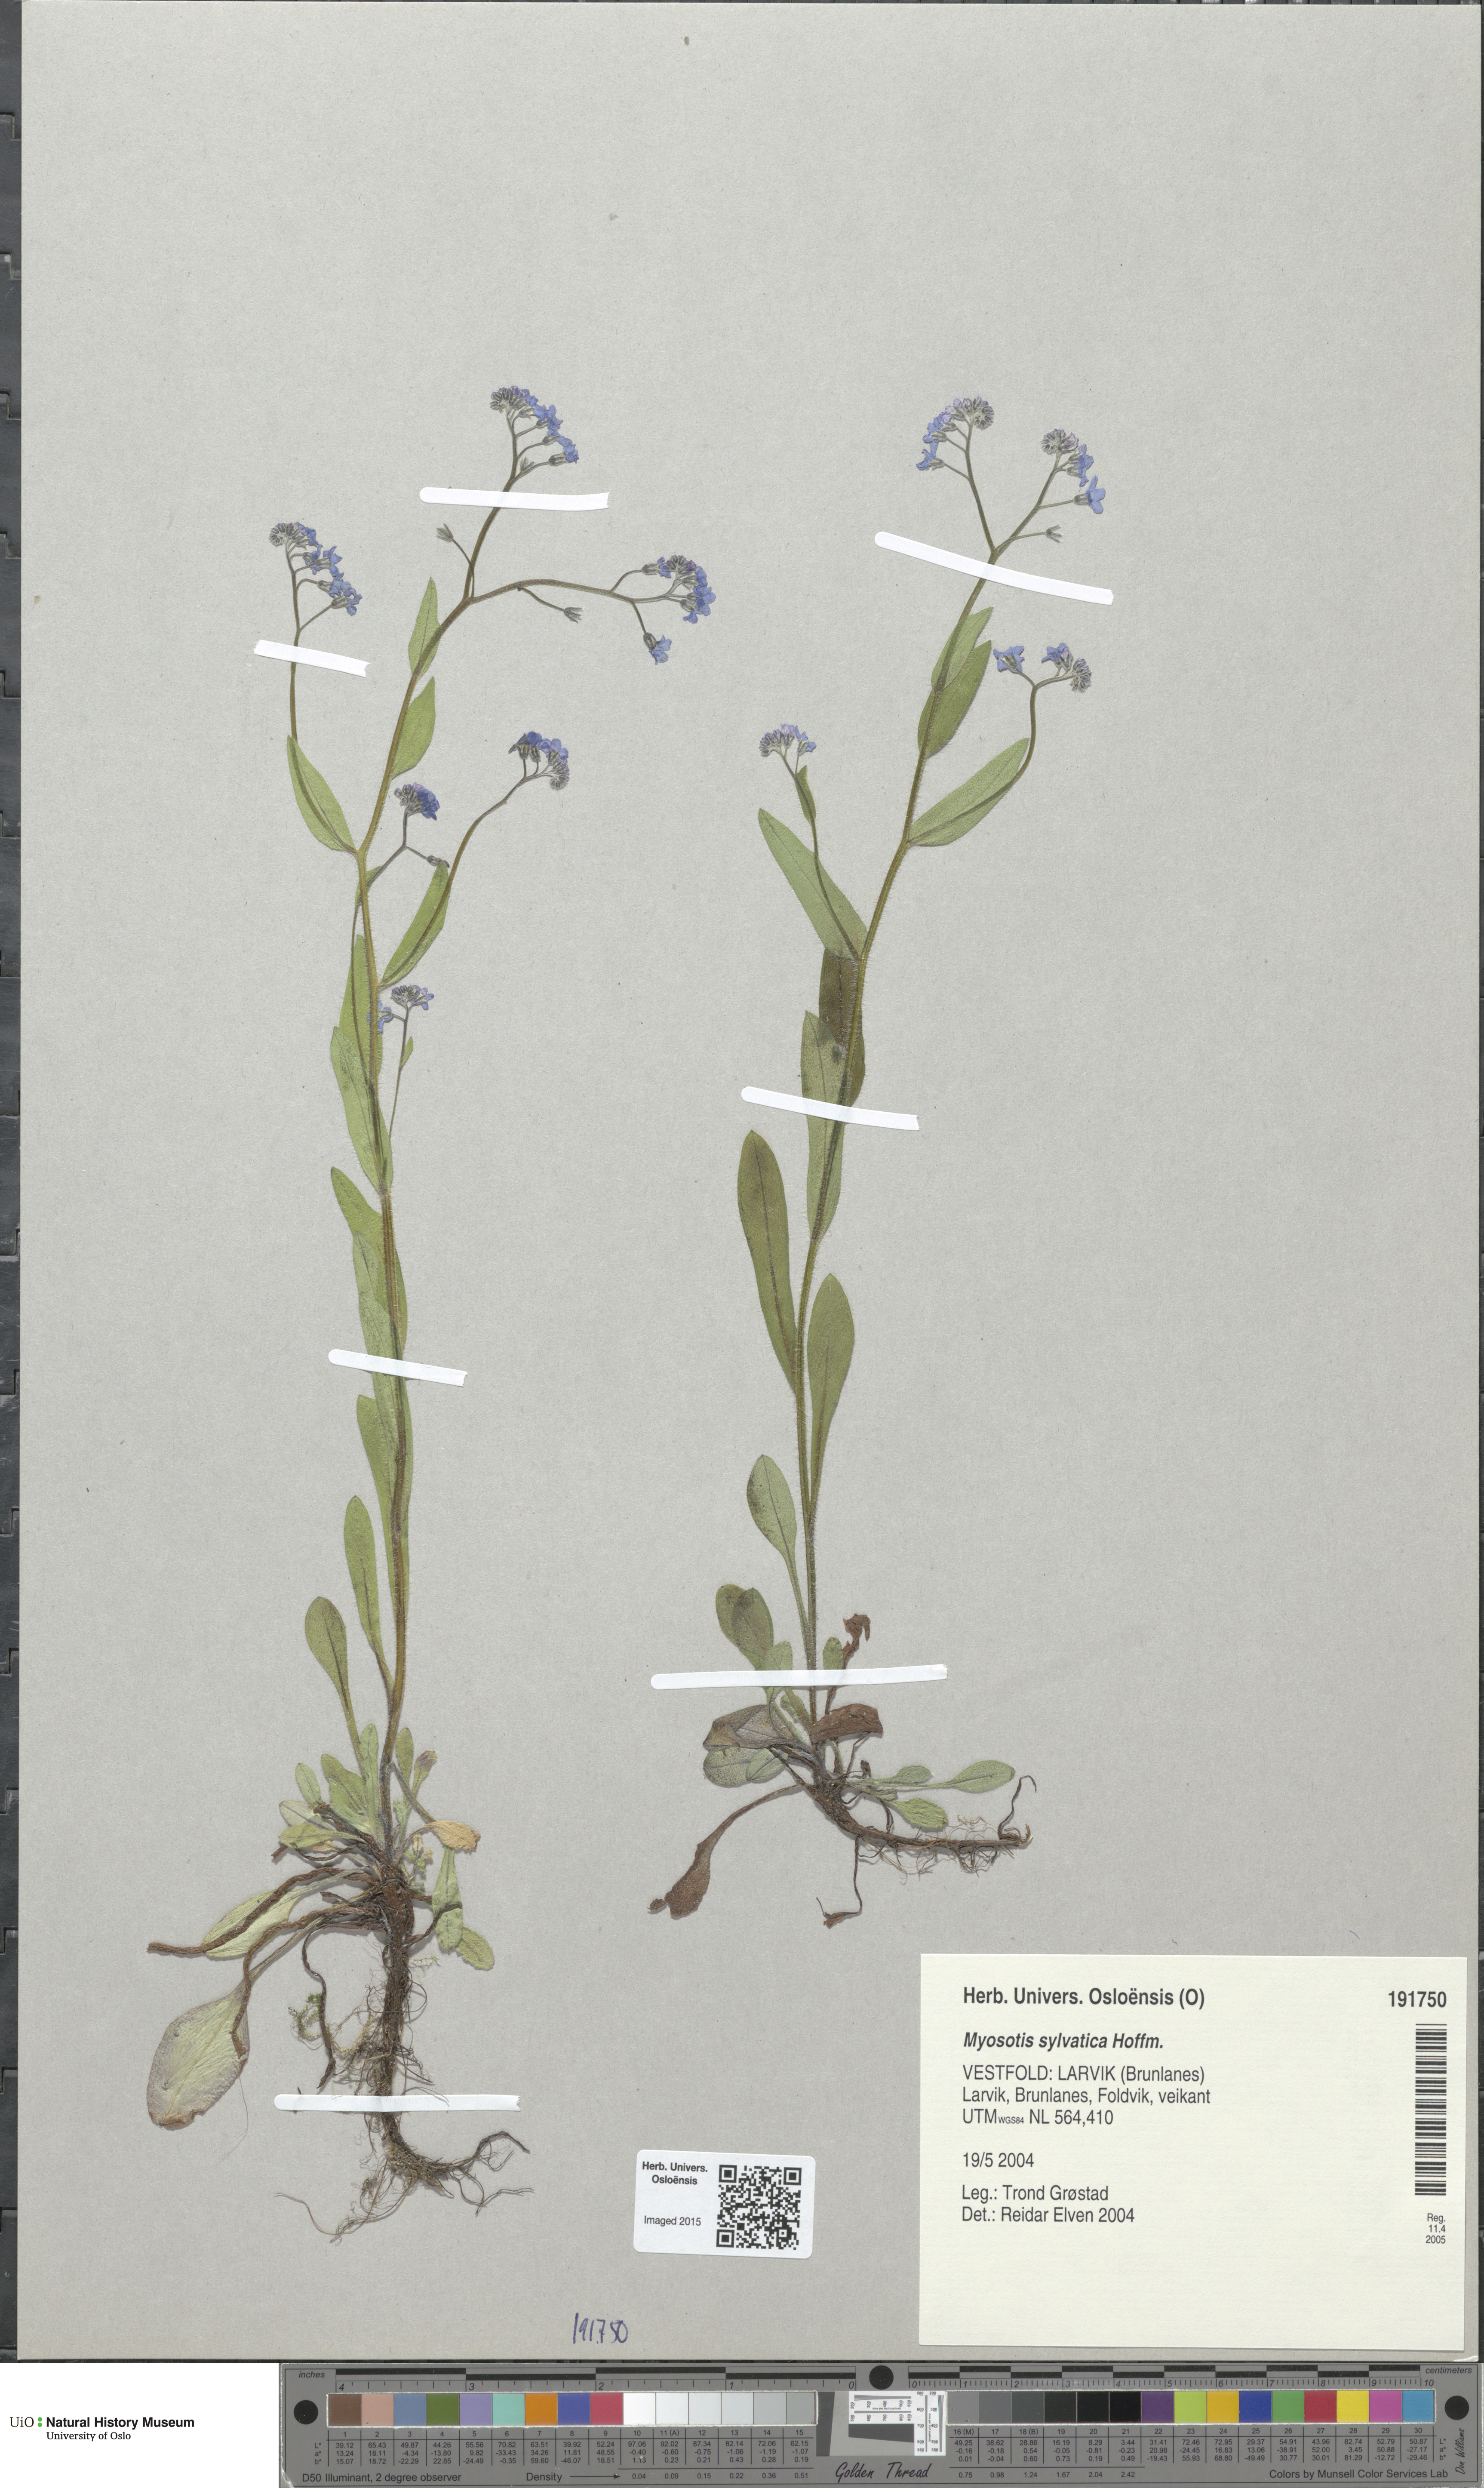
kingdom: Plantae
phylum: Tracheophyta
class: Magnoliopsida
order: Boraginales
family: Boraginaceae
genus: Myosotis
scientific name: Myosotis sylvatica
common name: Wood forget-me-not
